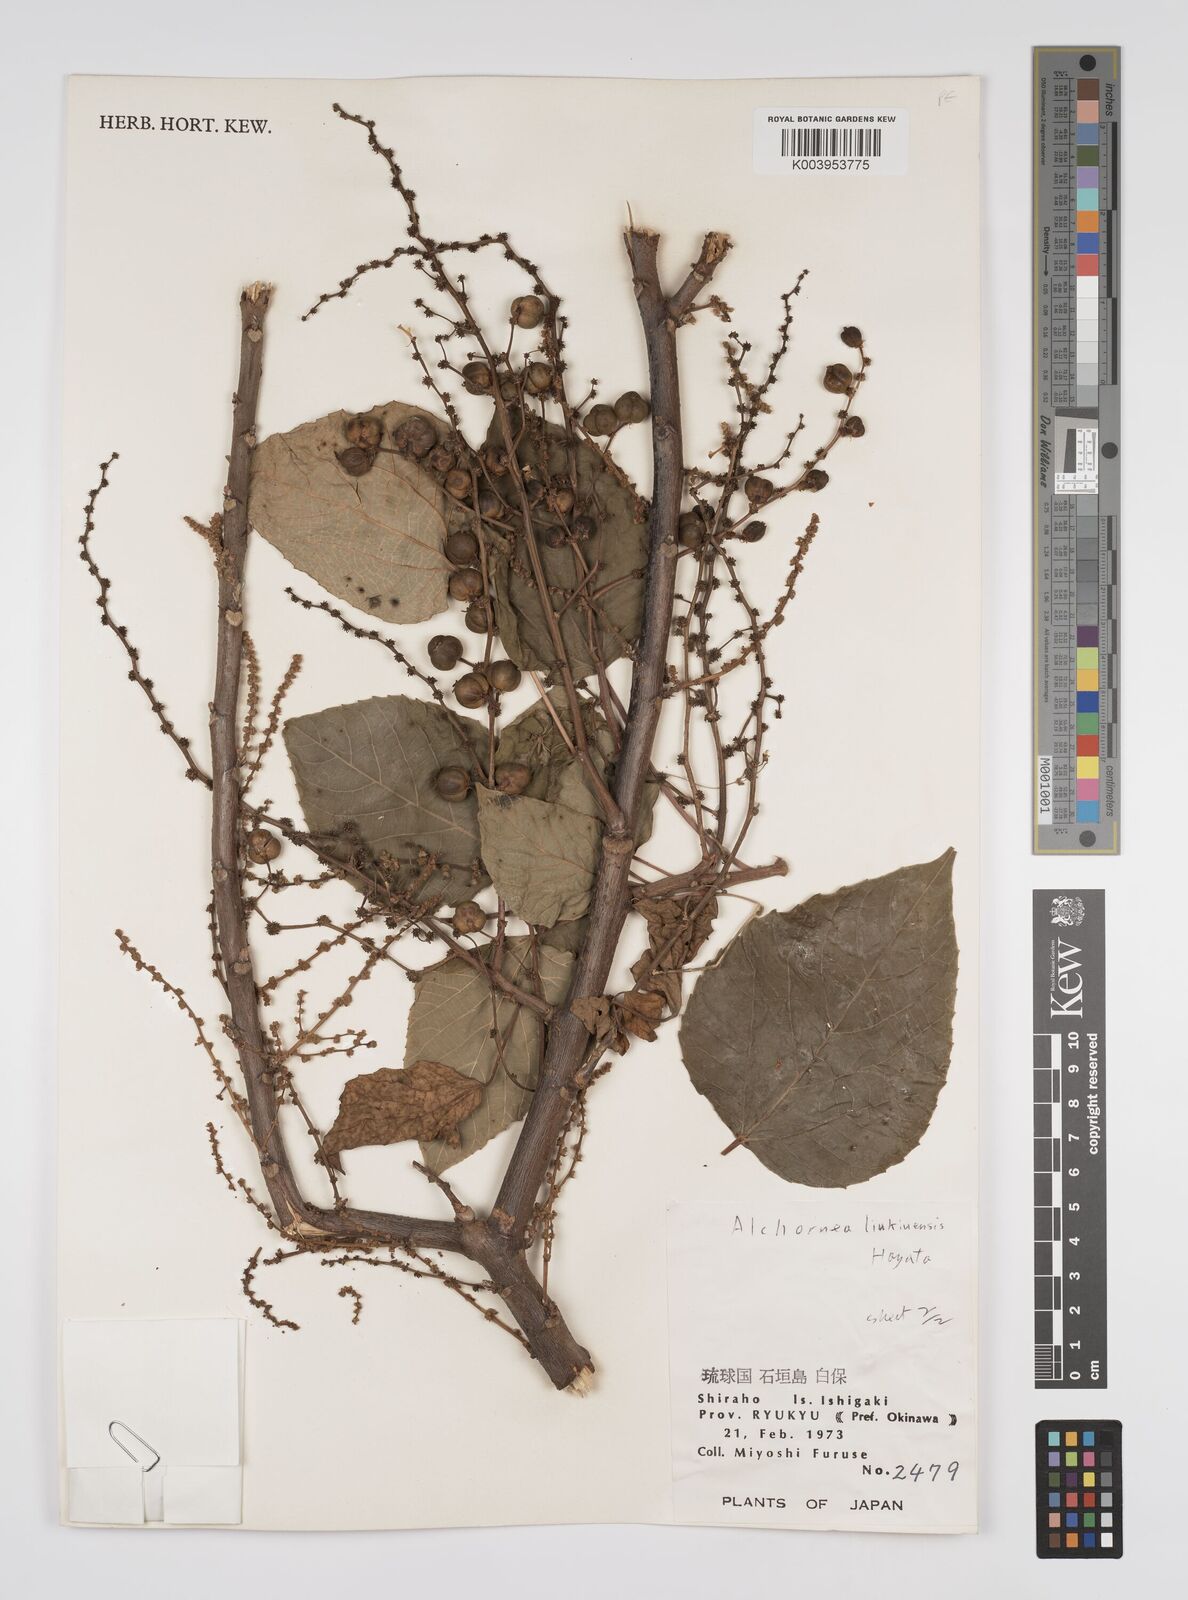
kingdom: Plantae
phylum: Tracheophyta
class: Magnoliopsida
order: Malpighiales
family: Euphorbiaceae
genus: Alchornea
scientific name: Alchornea liukiuensis
